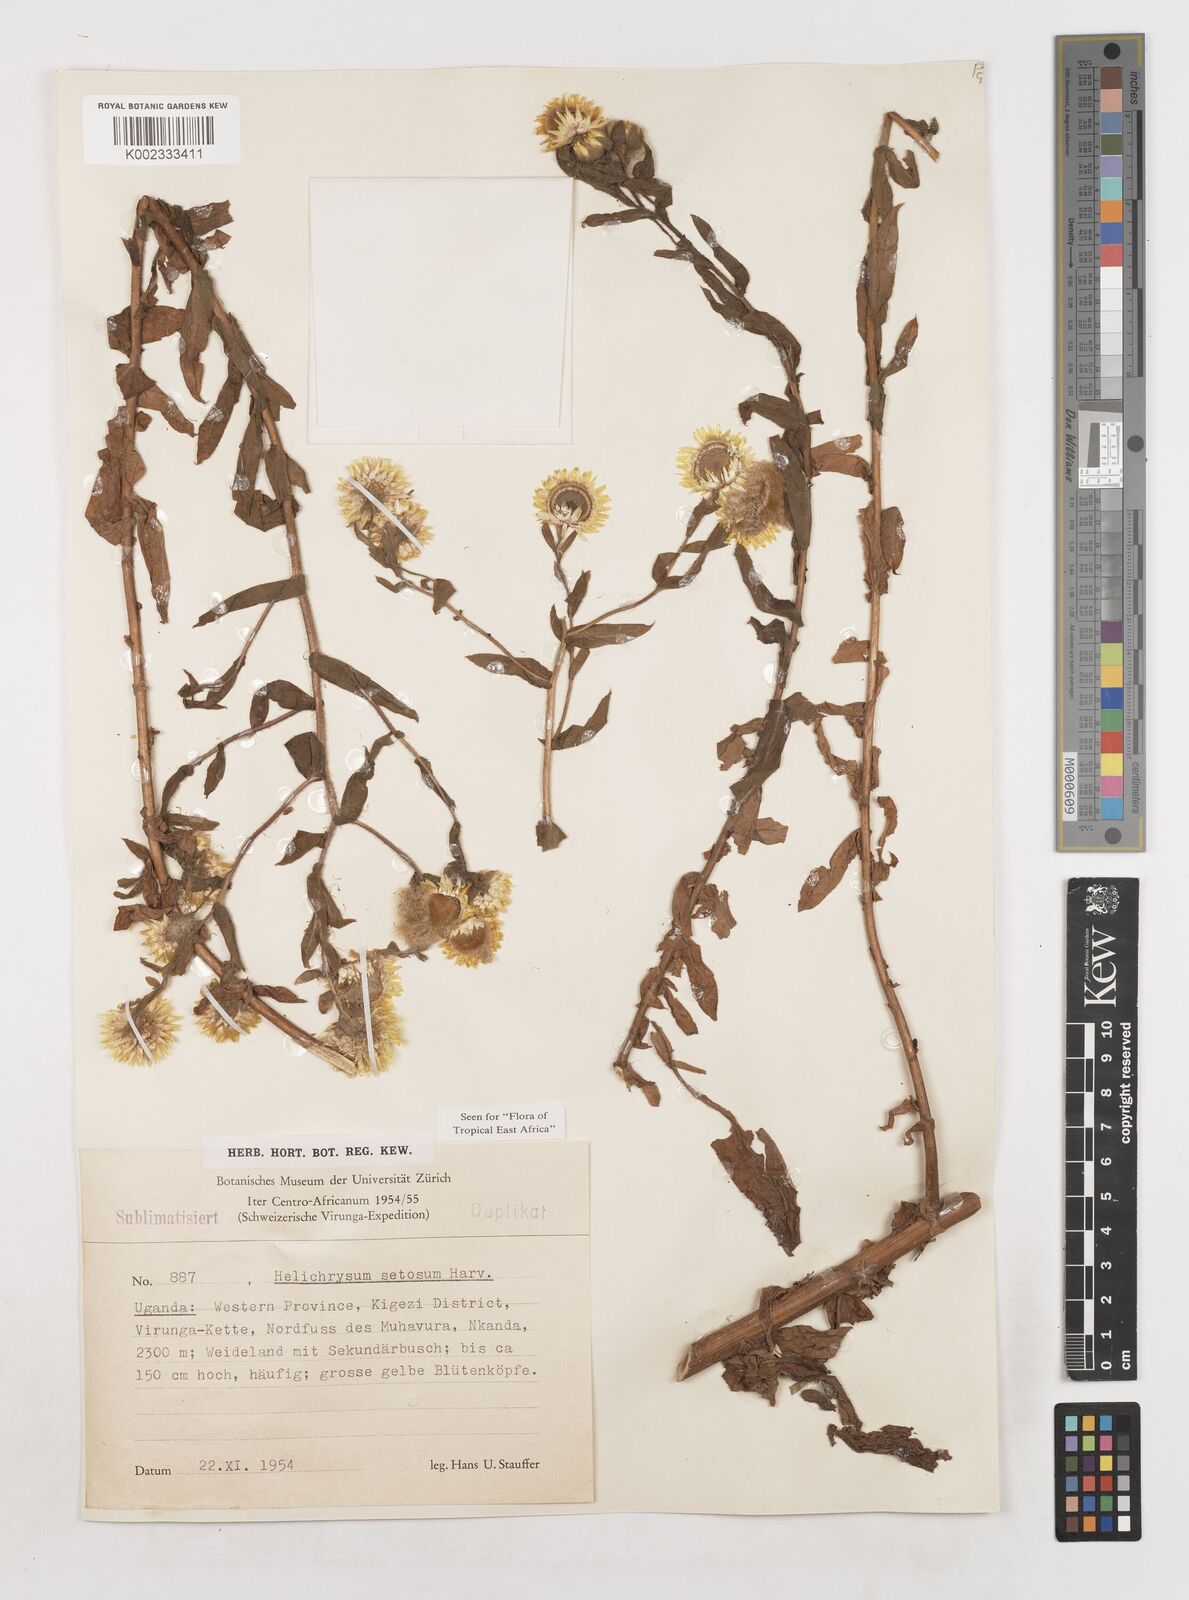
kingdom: Plantae
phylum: Tracheophyta
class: Magnoliopsida
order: Asterales
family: Asteraceae
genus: Helichrysum
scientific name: Helichrysum setosum
